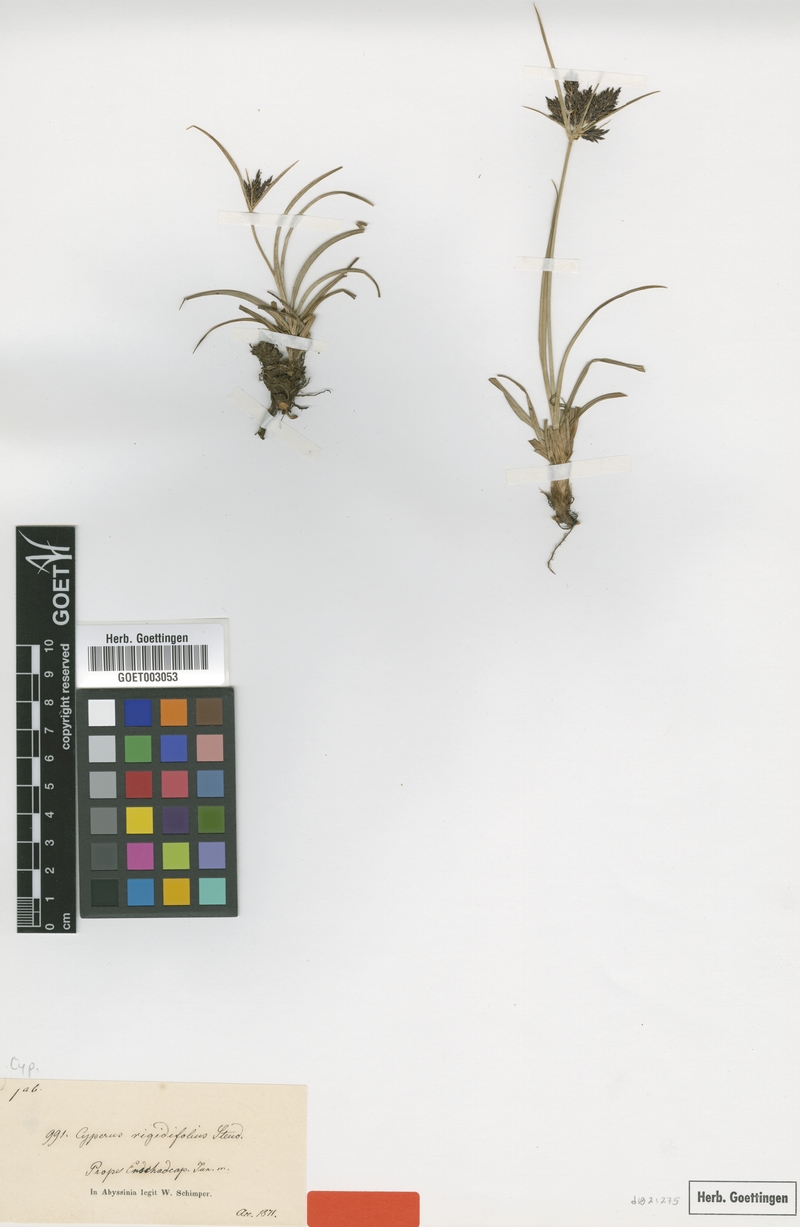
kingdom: Plantae
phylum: Tracheophyta
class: Liliopsida
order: Poales
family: Cyperaceae
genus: Cyperus
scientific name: Cyperus rigidifolius
